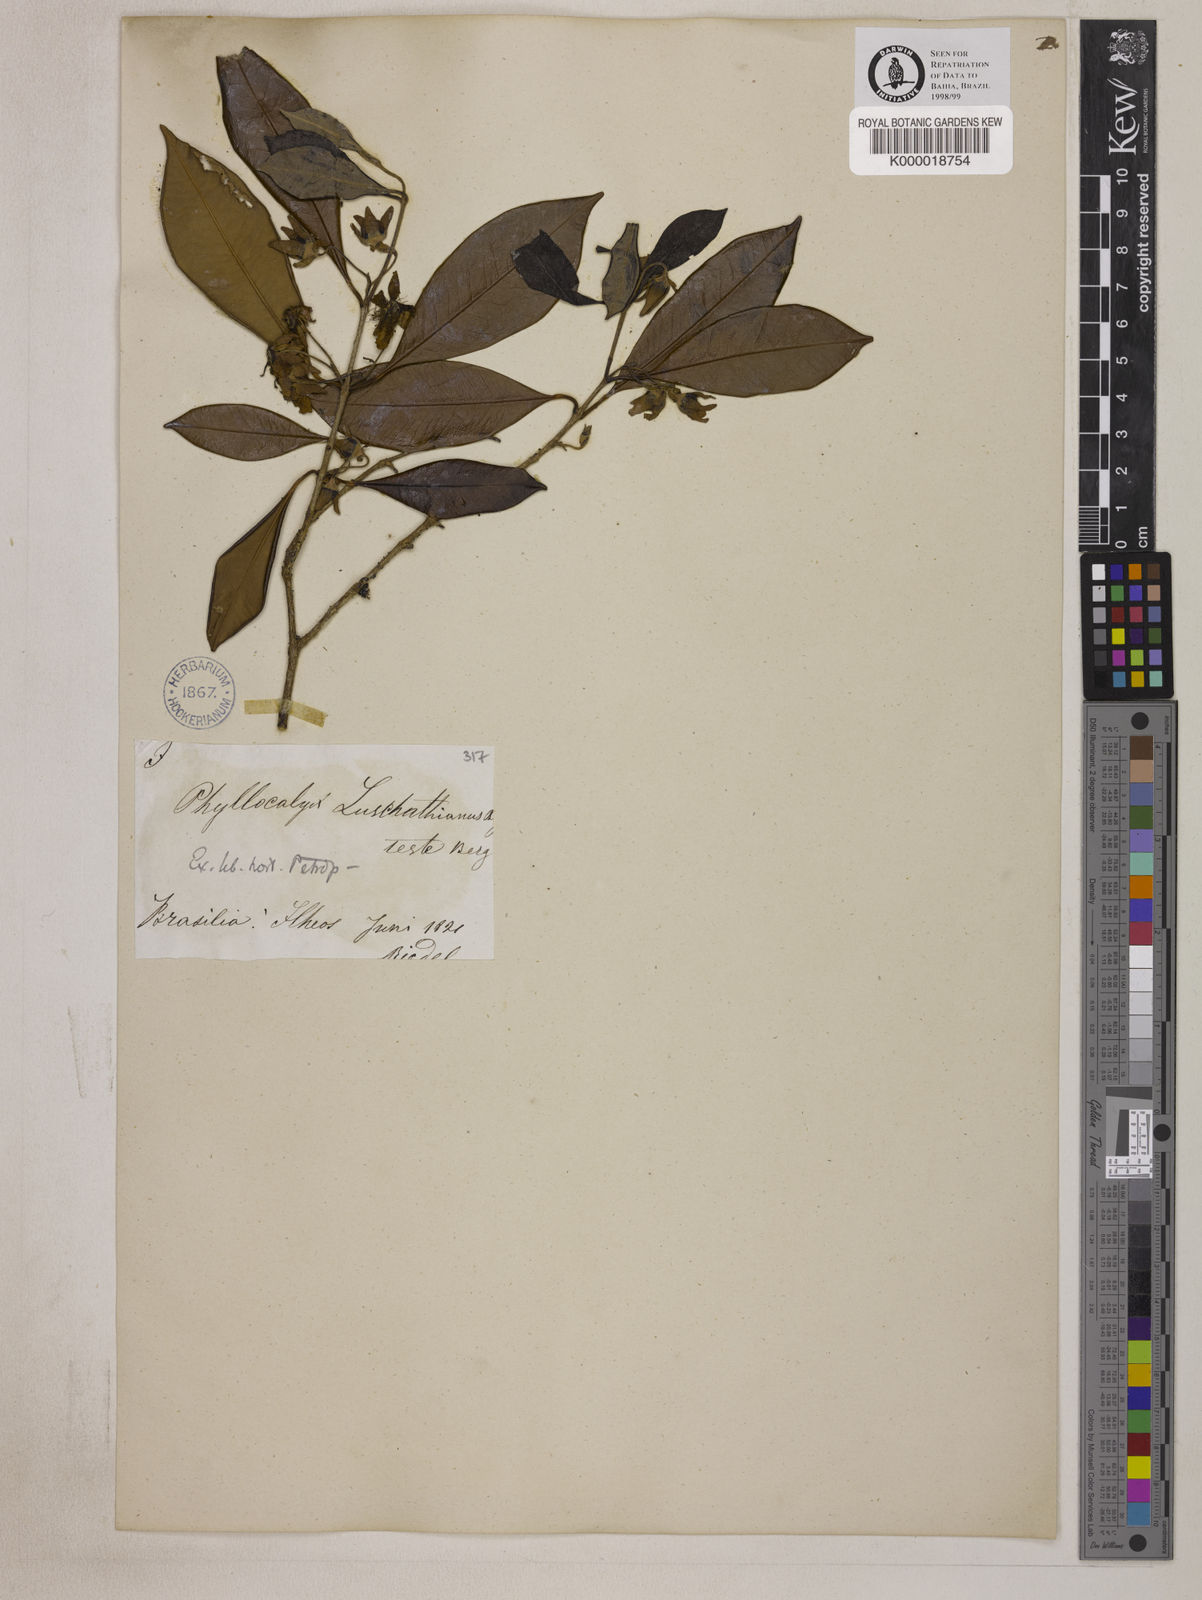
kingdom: Plantae
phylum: Tracheophyta
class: Magnoliopsida
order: Myrtales
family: Myrtaceae
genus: Eugenia
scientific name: Eugenia
